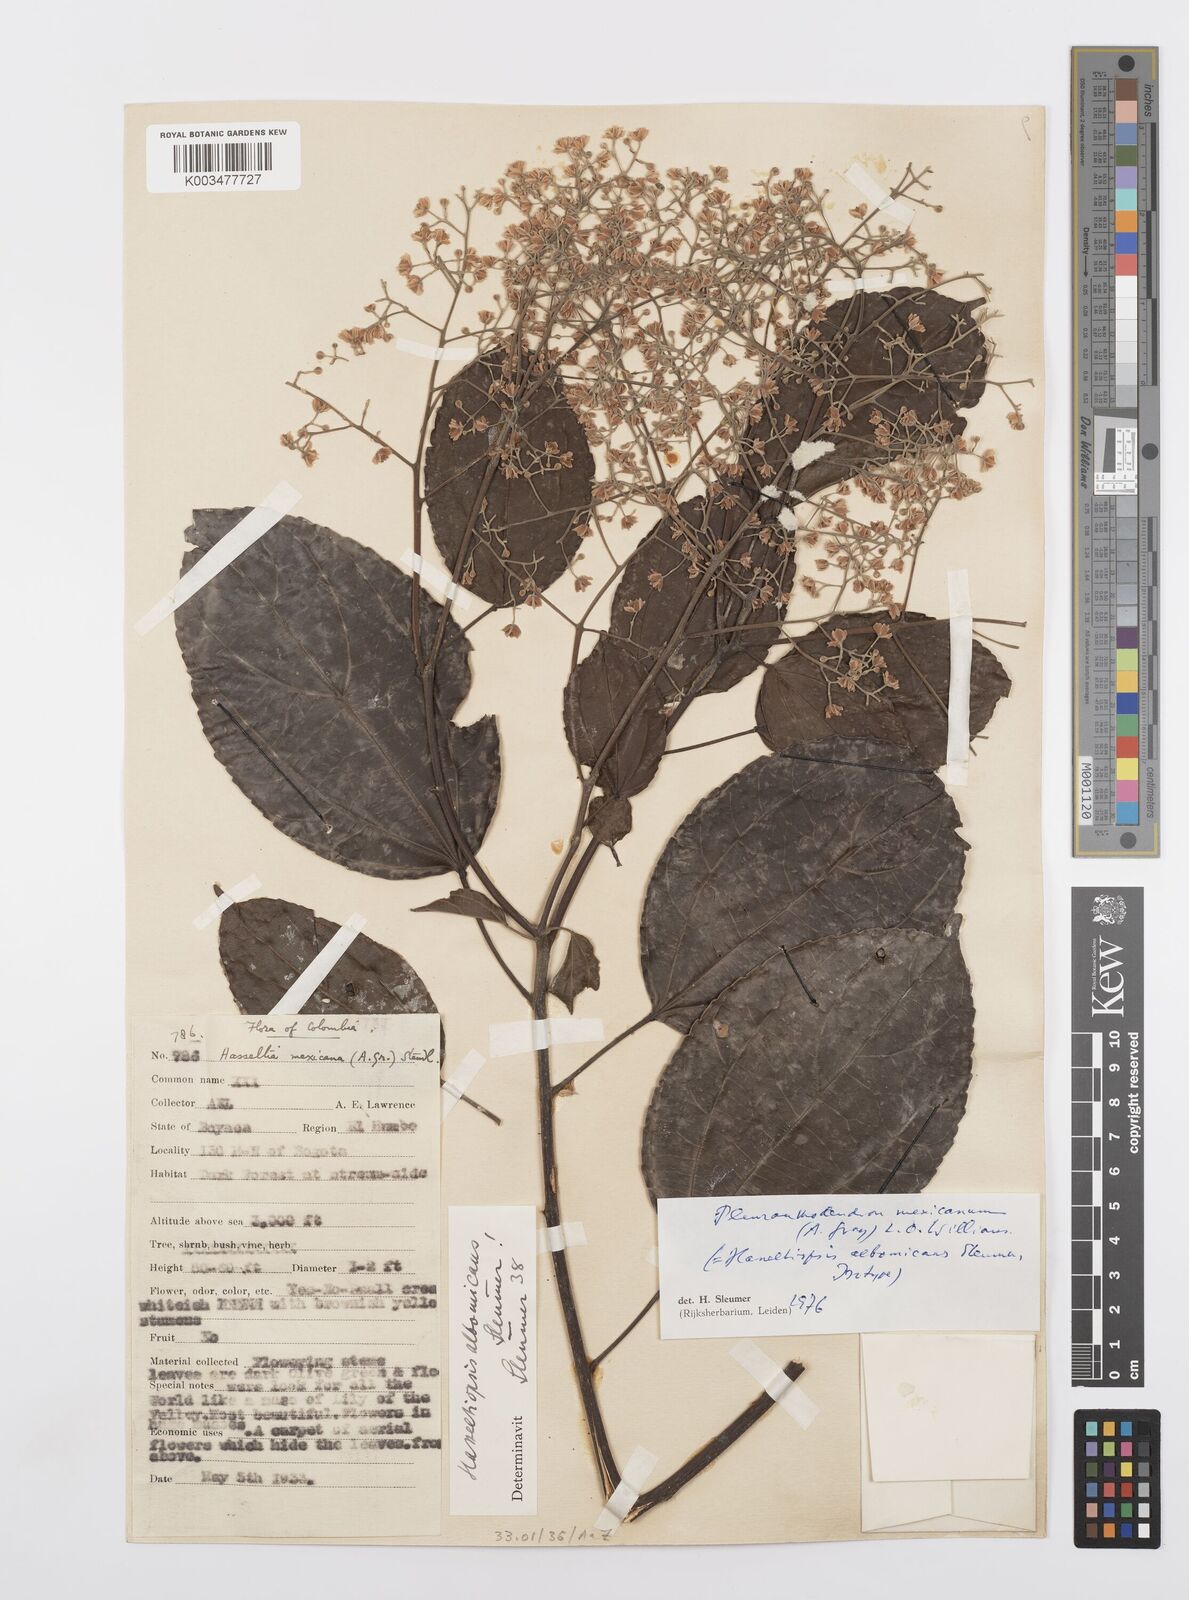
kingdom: Plantae
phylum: Tracheophyta
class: Magnoliopsida
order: Malpighiales
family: Salicaceae
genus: Pleuranthodendron
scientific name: Pleuranthodendron lindenii
